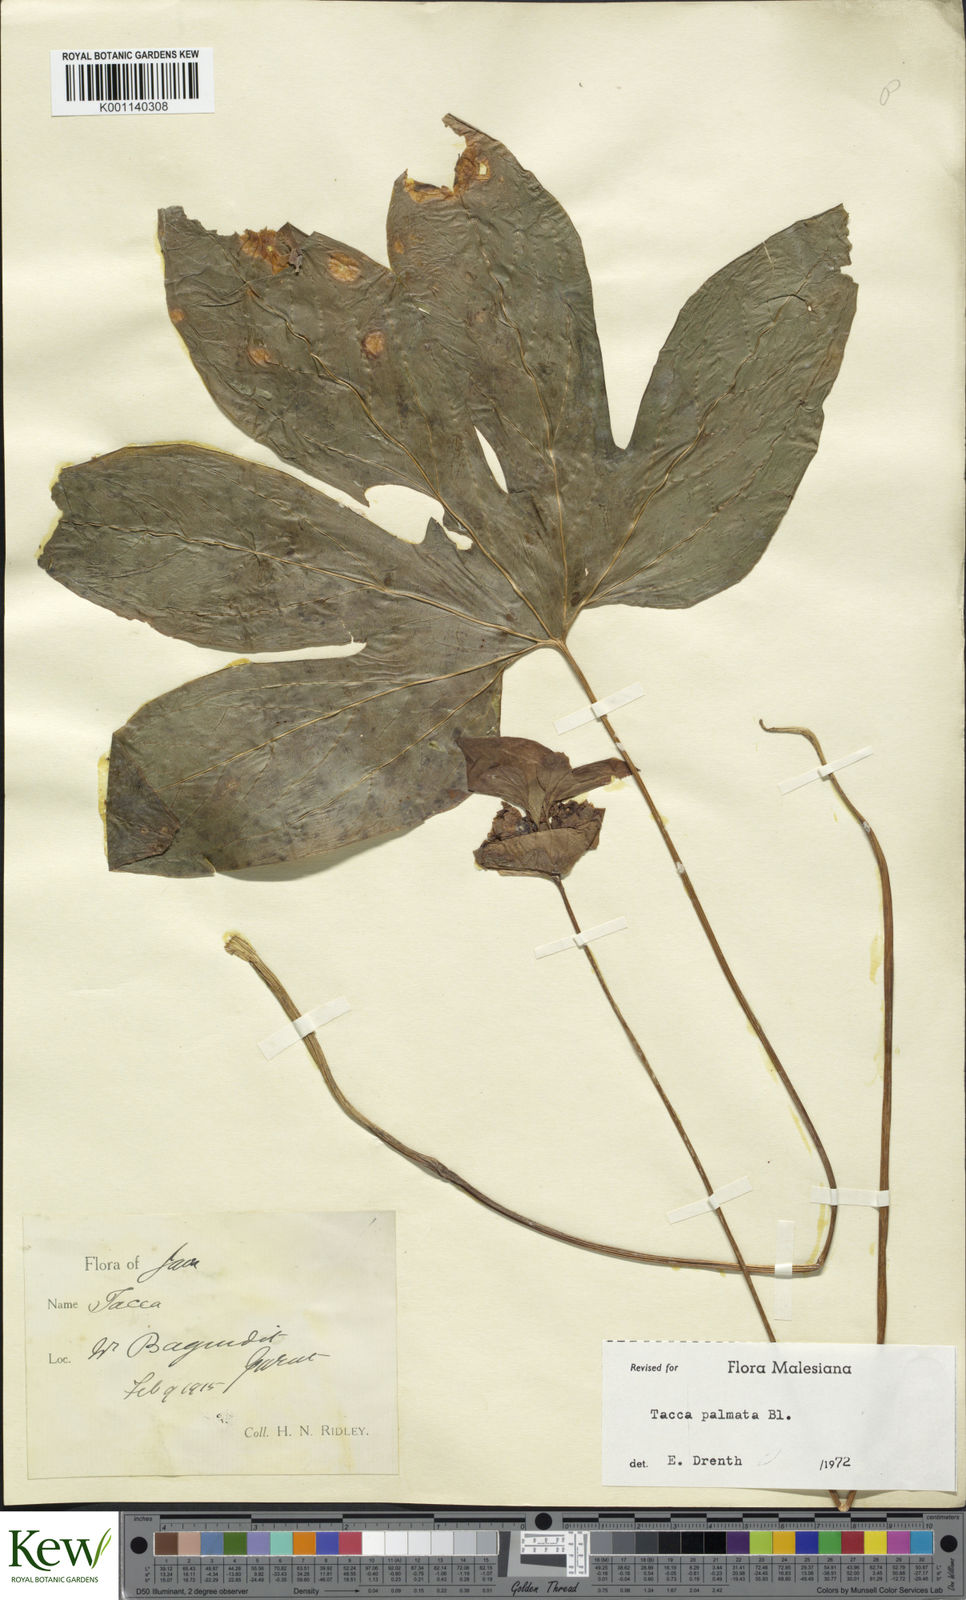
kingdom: Plantae
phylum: Tracheophyta
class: Liliopsida
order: Dioscoreales
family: Dioscoreaceae
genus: Tacca
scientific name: Tacca palmata
